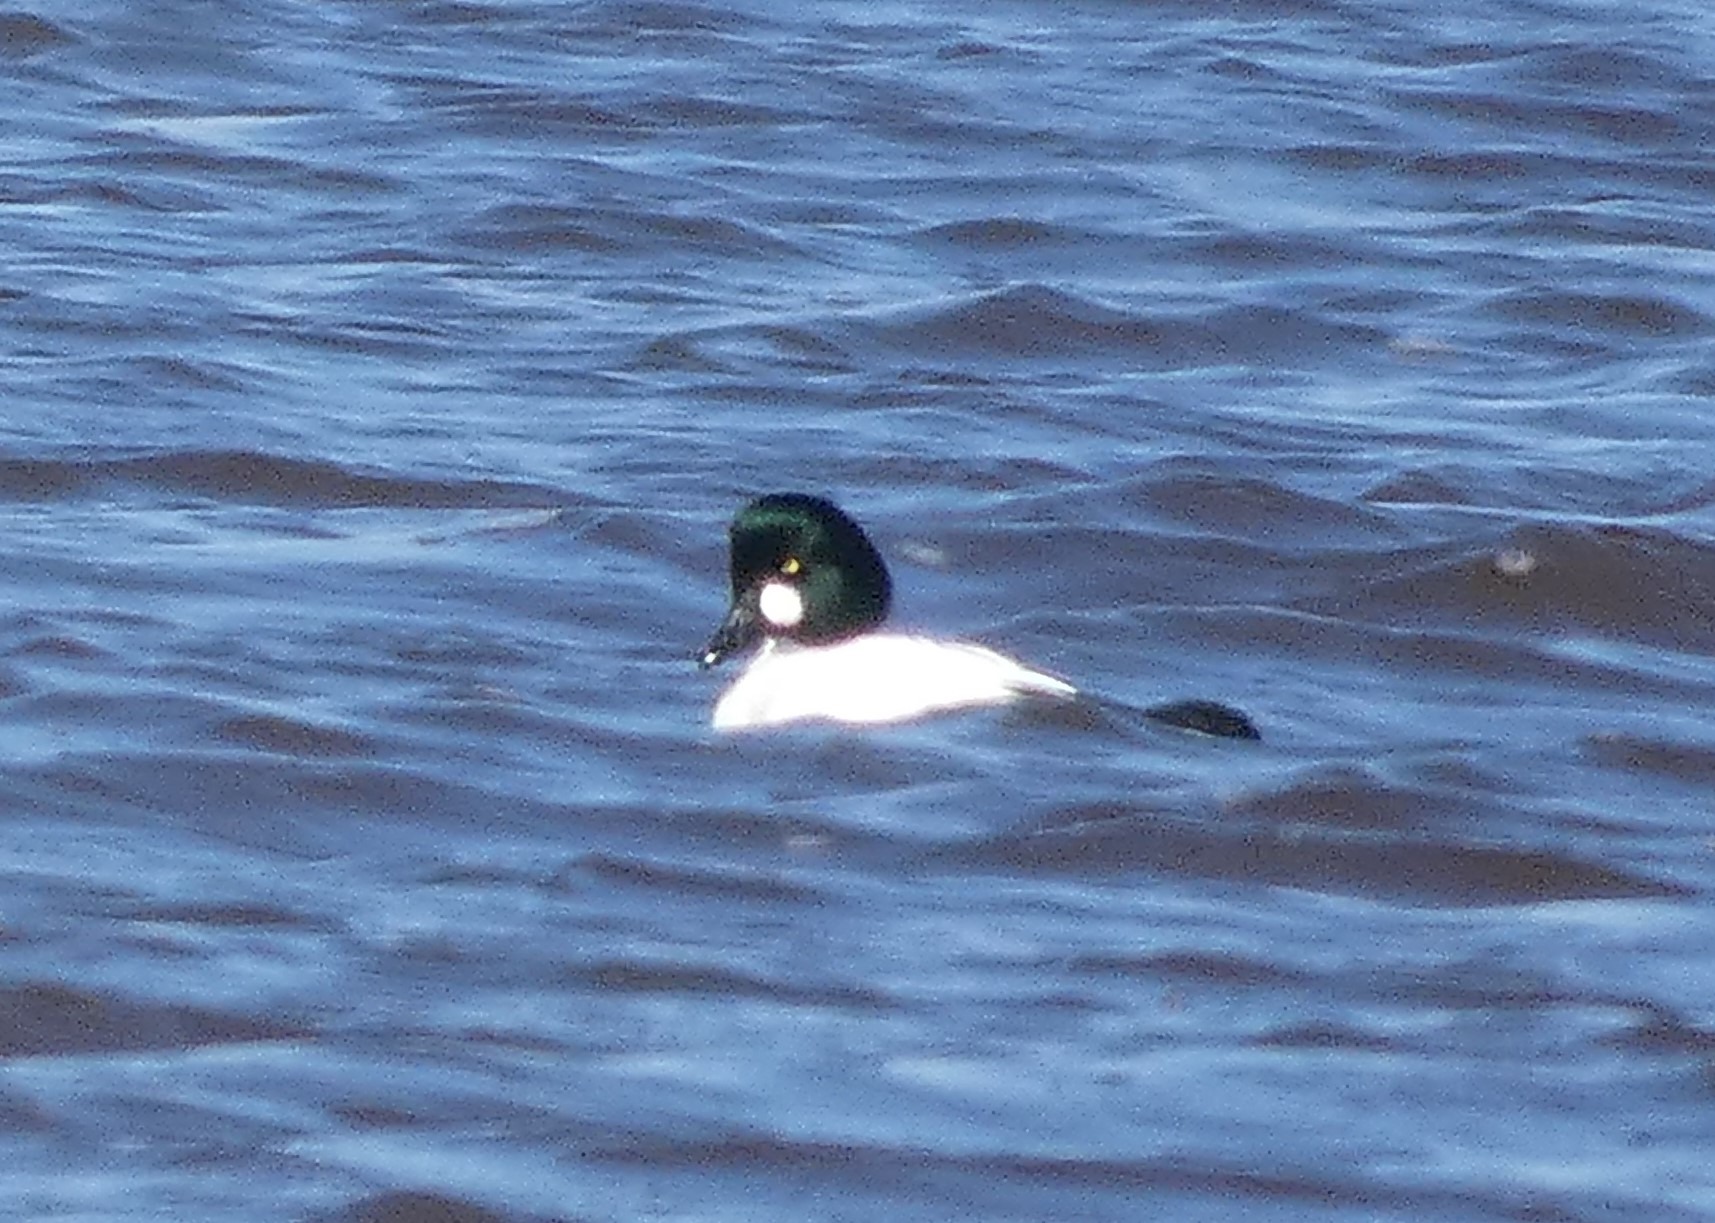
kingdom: Animalia
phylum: Chordata
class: Aves
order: Anseriformes
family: Anatidae
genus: Bucephala
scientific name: Bucephala clangula
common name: Hvinand
